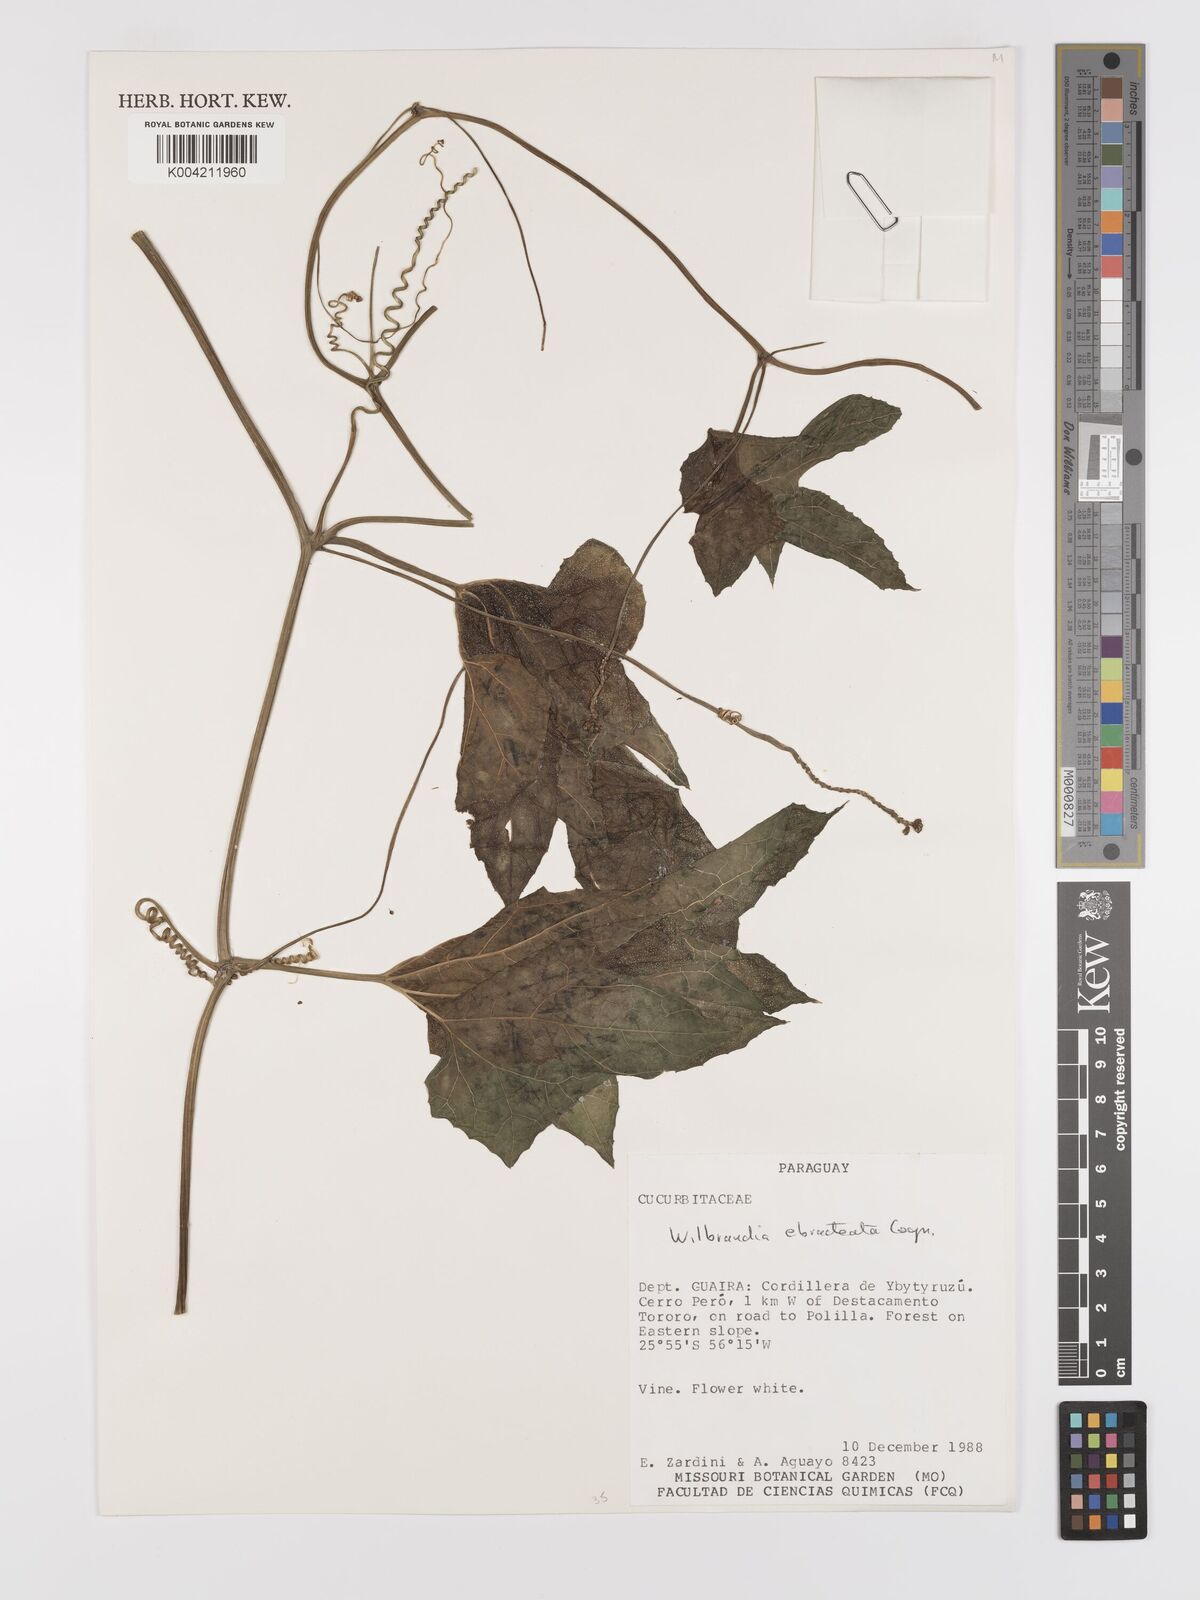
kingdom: Plantae
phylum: Tracheophyta
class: Magnoliopsida
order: Cucurbitales
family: Cucurbitaceae
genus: Wilbrandia
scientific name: Wilbrandia ebracteata
